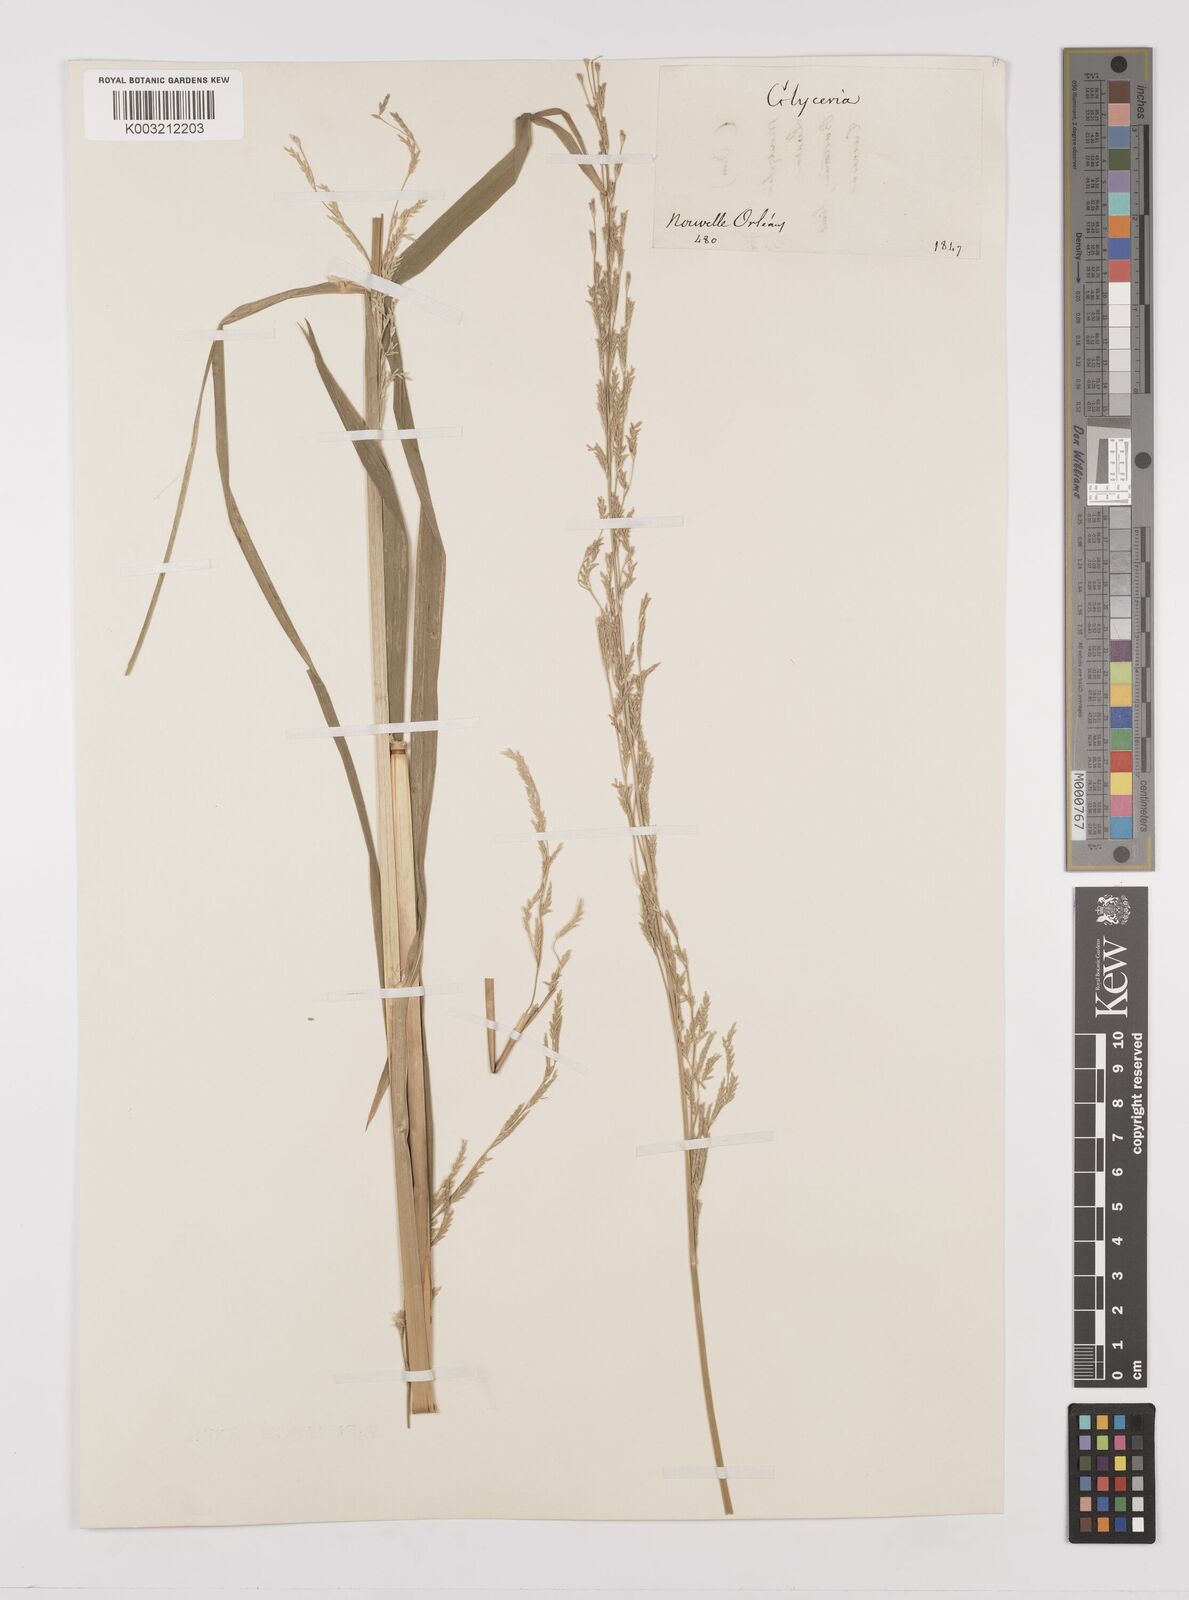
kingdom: Plantae
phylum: Tracheophyta
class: Liliopsida
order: Poales
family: Poaceae
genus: Glyceria
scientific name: Glyceria
